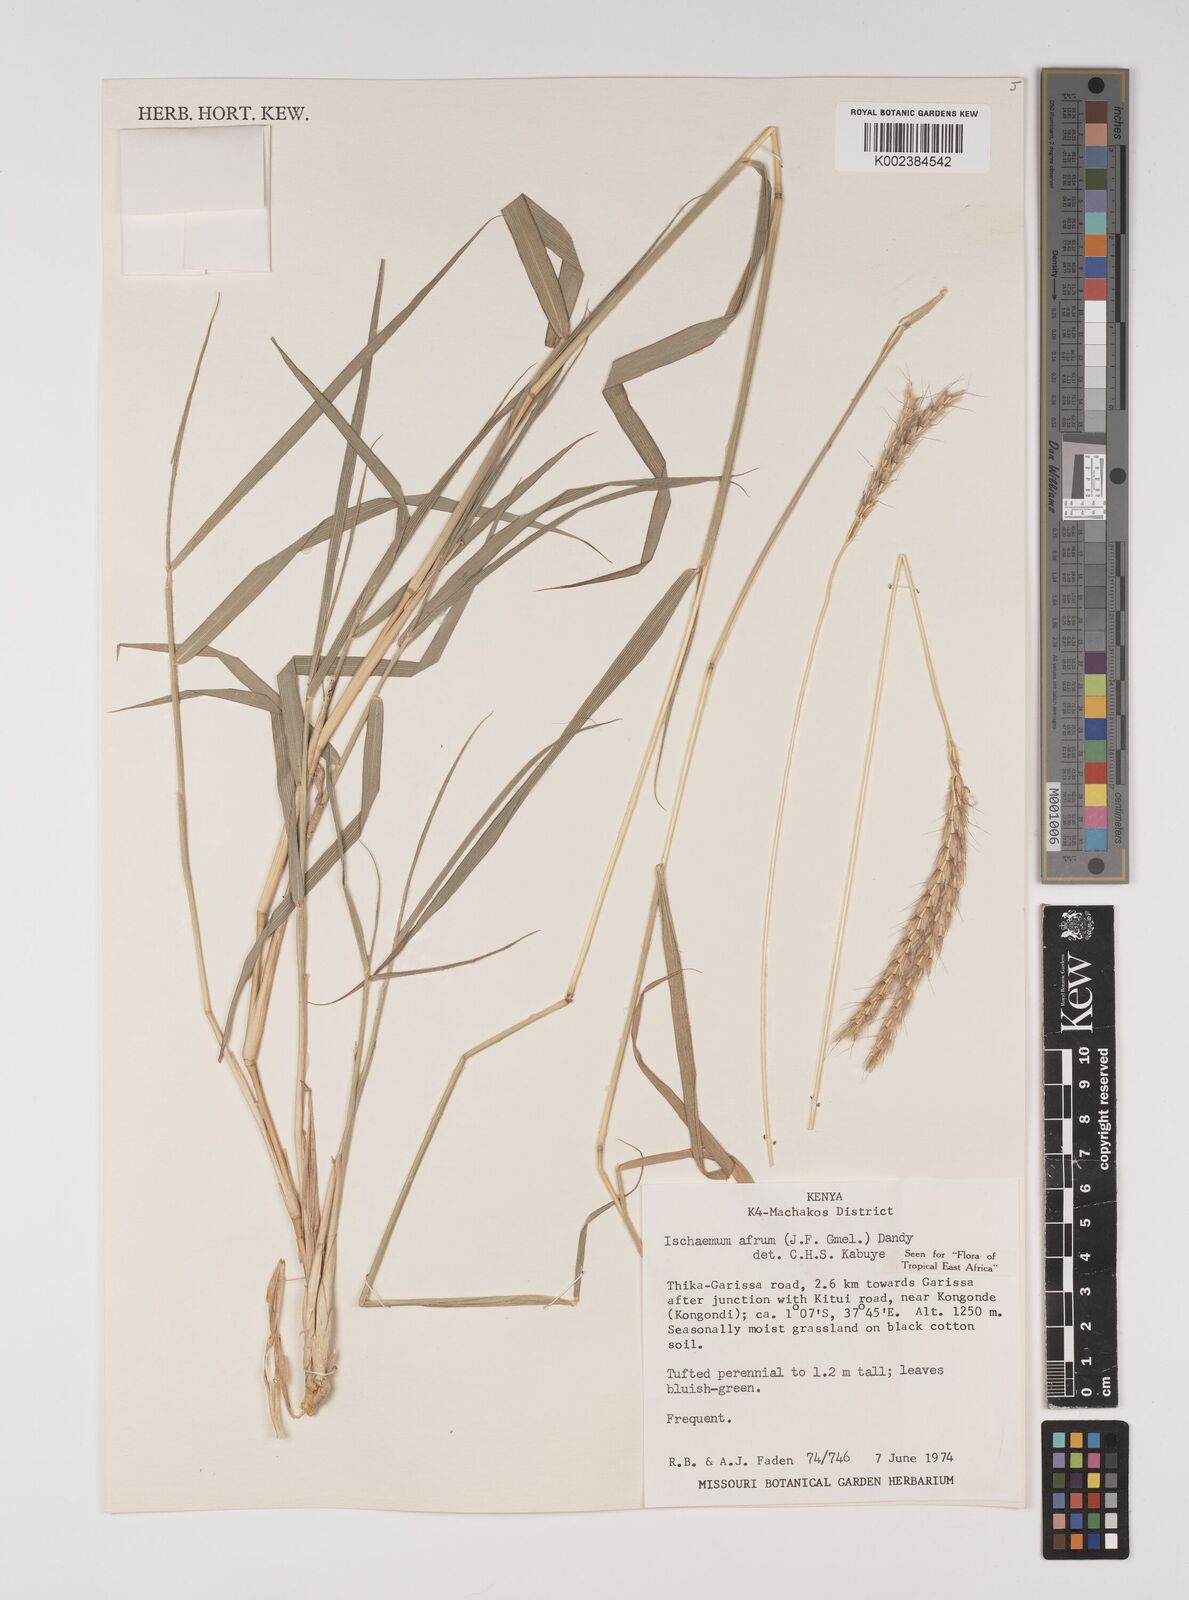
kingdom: Plantae
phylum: Tracheophyta
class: Liliopsida
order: Poales
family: Poaceae
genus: Ischaemum
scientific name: Ischaemum afrum
